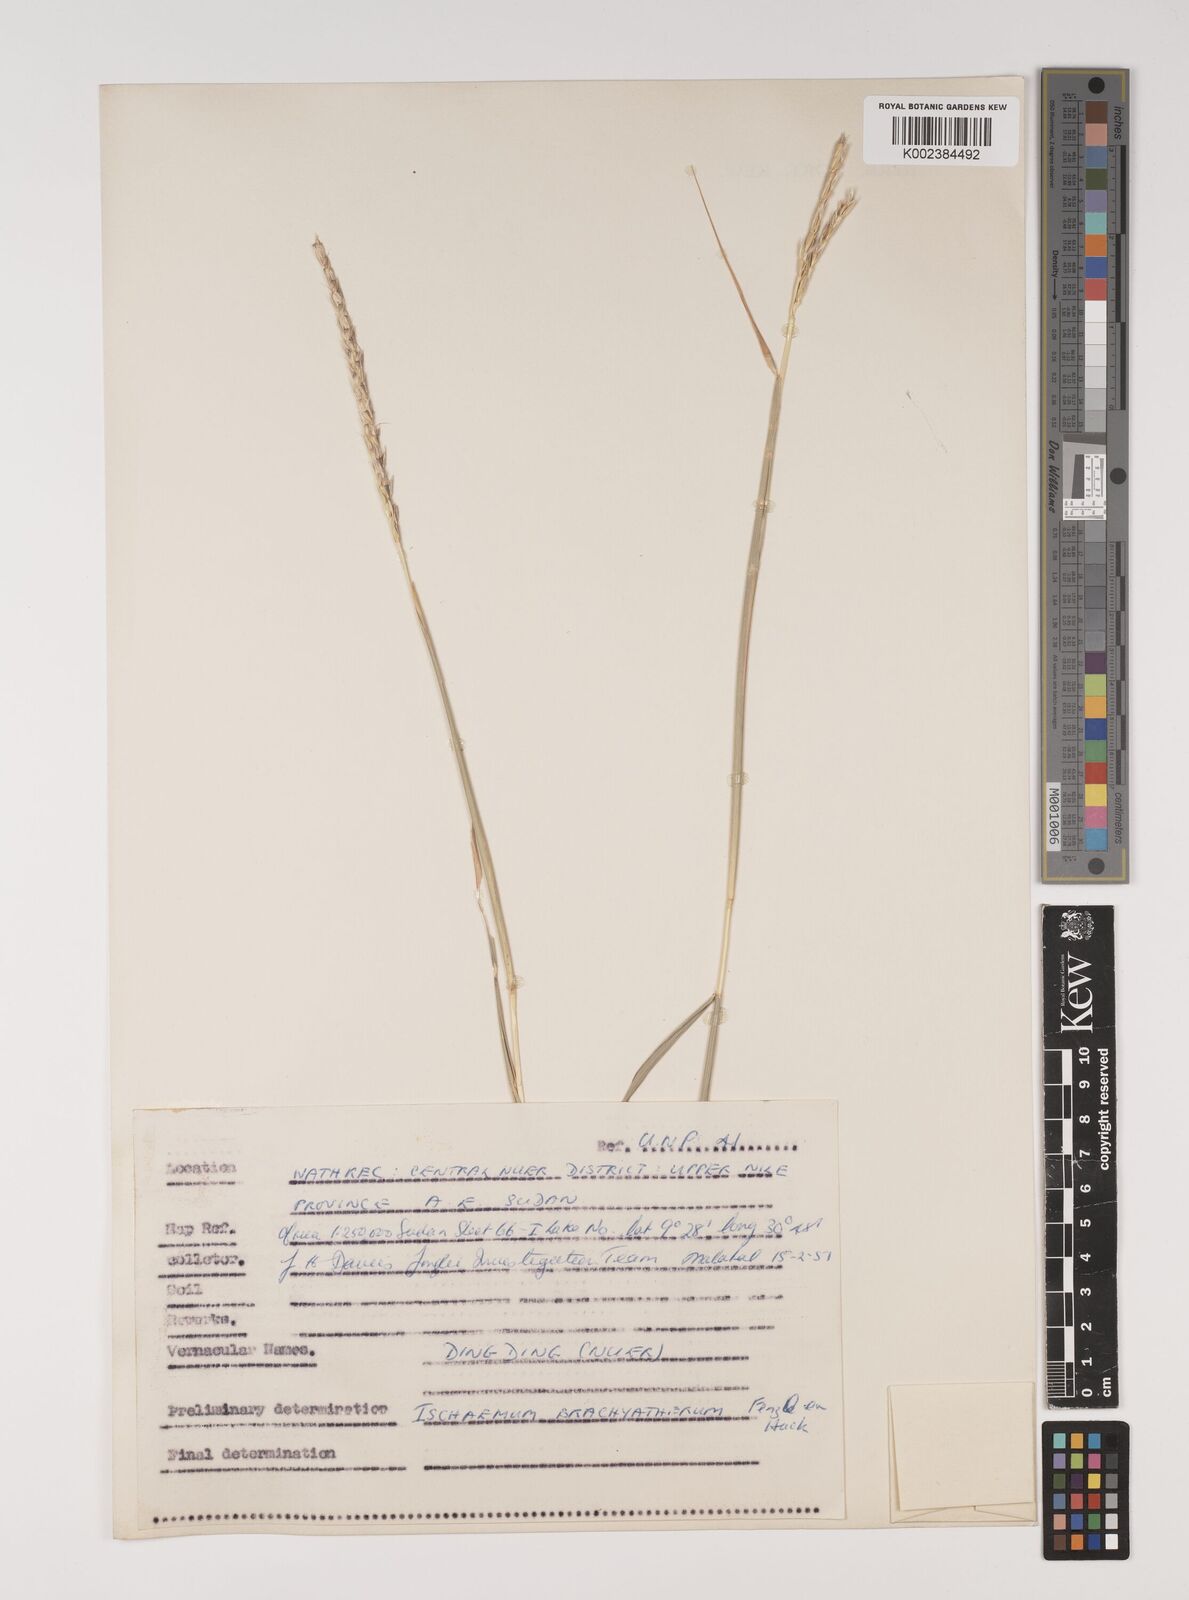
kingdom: Plantae
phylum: Tracheophyta
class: Liliopsida
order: Poales
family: Poaceae
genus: Ischaemum
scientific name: Ischaemum afrum
